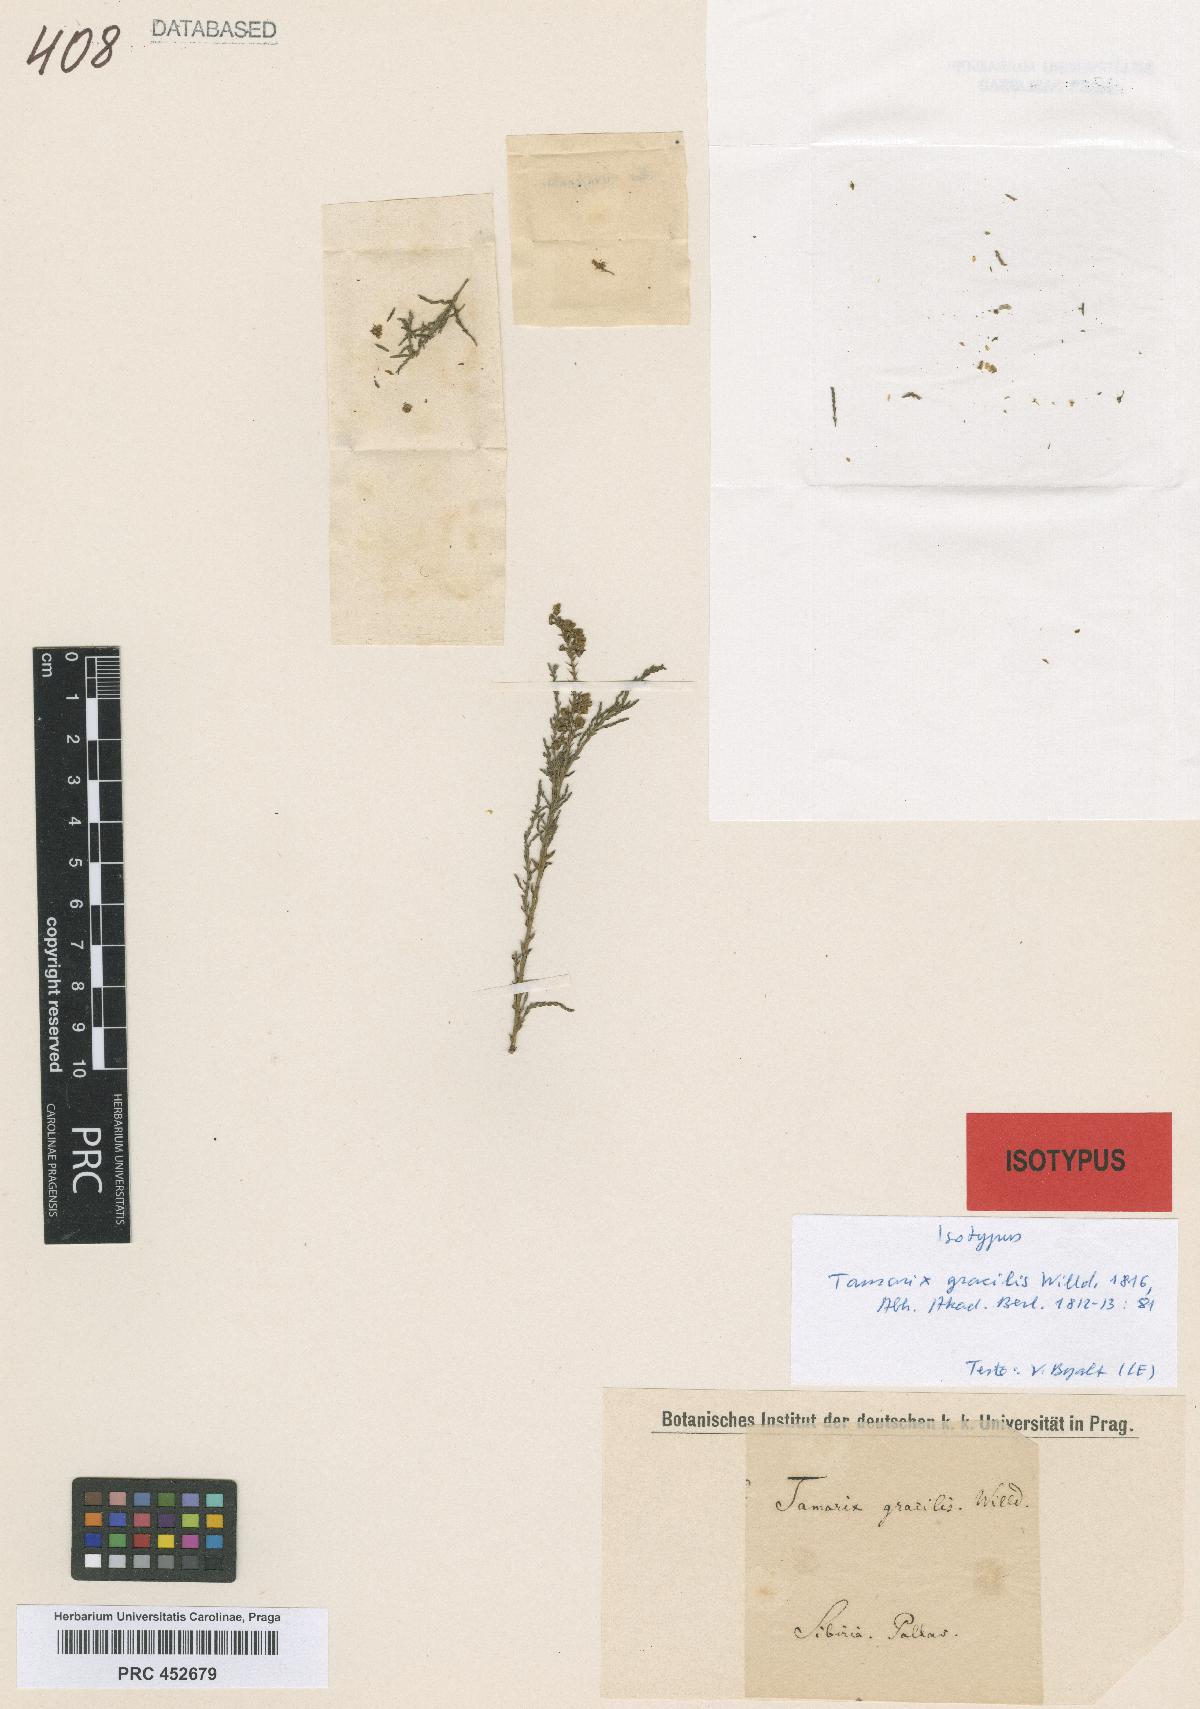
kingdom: Plantae
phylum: Tracheophyta
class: Magnoliopsida
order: Caryophyllales
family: Tamaricaceae
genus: Tamarix
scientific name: Tamarix gracilis
